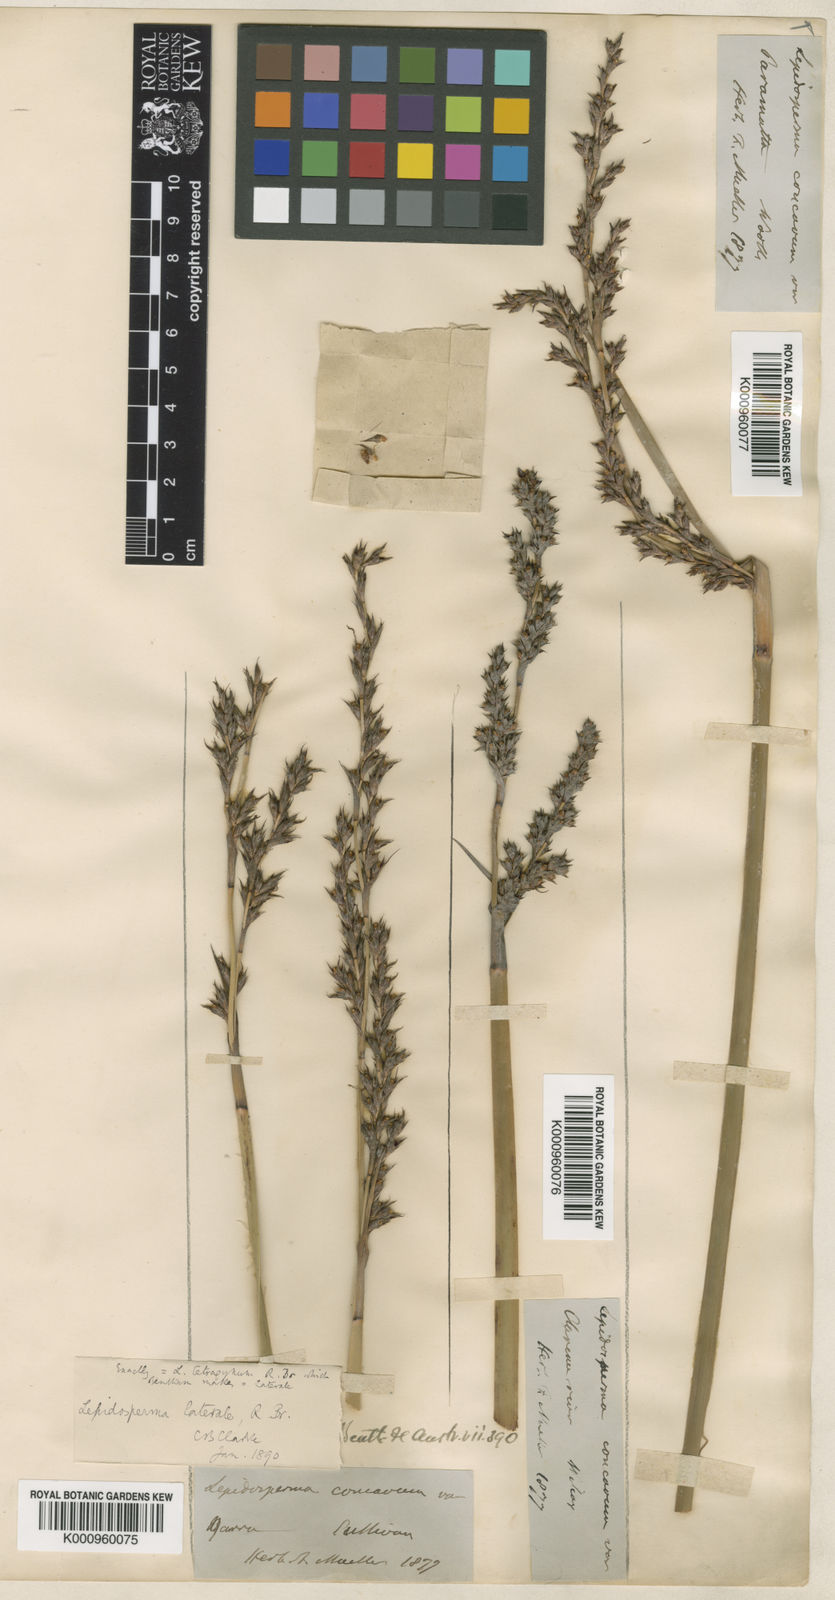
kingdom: Plantae
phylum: Tracheophyta
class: Liliopsida
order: Poales
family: Cyperaceae
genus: Lepidosperma
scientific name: Lepidosperma laterale
